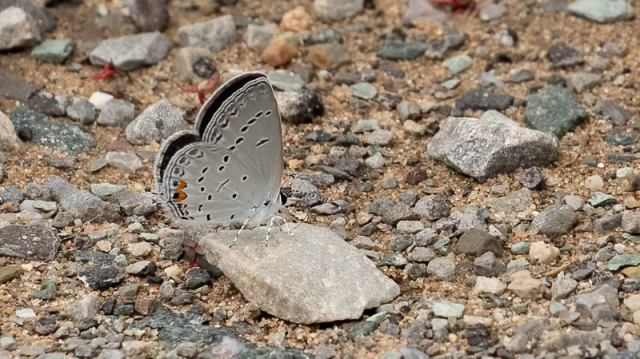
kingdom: Animalia
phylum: Arthropoda
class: Insecta
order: Lepidoptera
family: Lycaenidae
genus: Elkalyce
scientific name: Elkalyce comyntas
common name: Eastern Tailed-Blue
